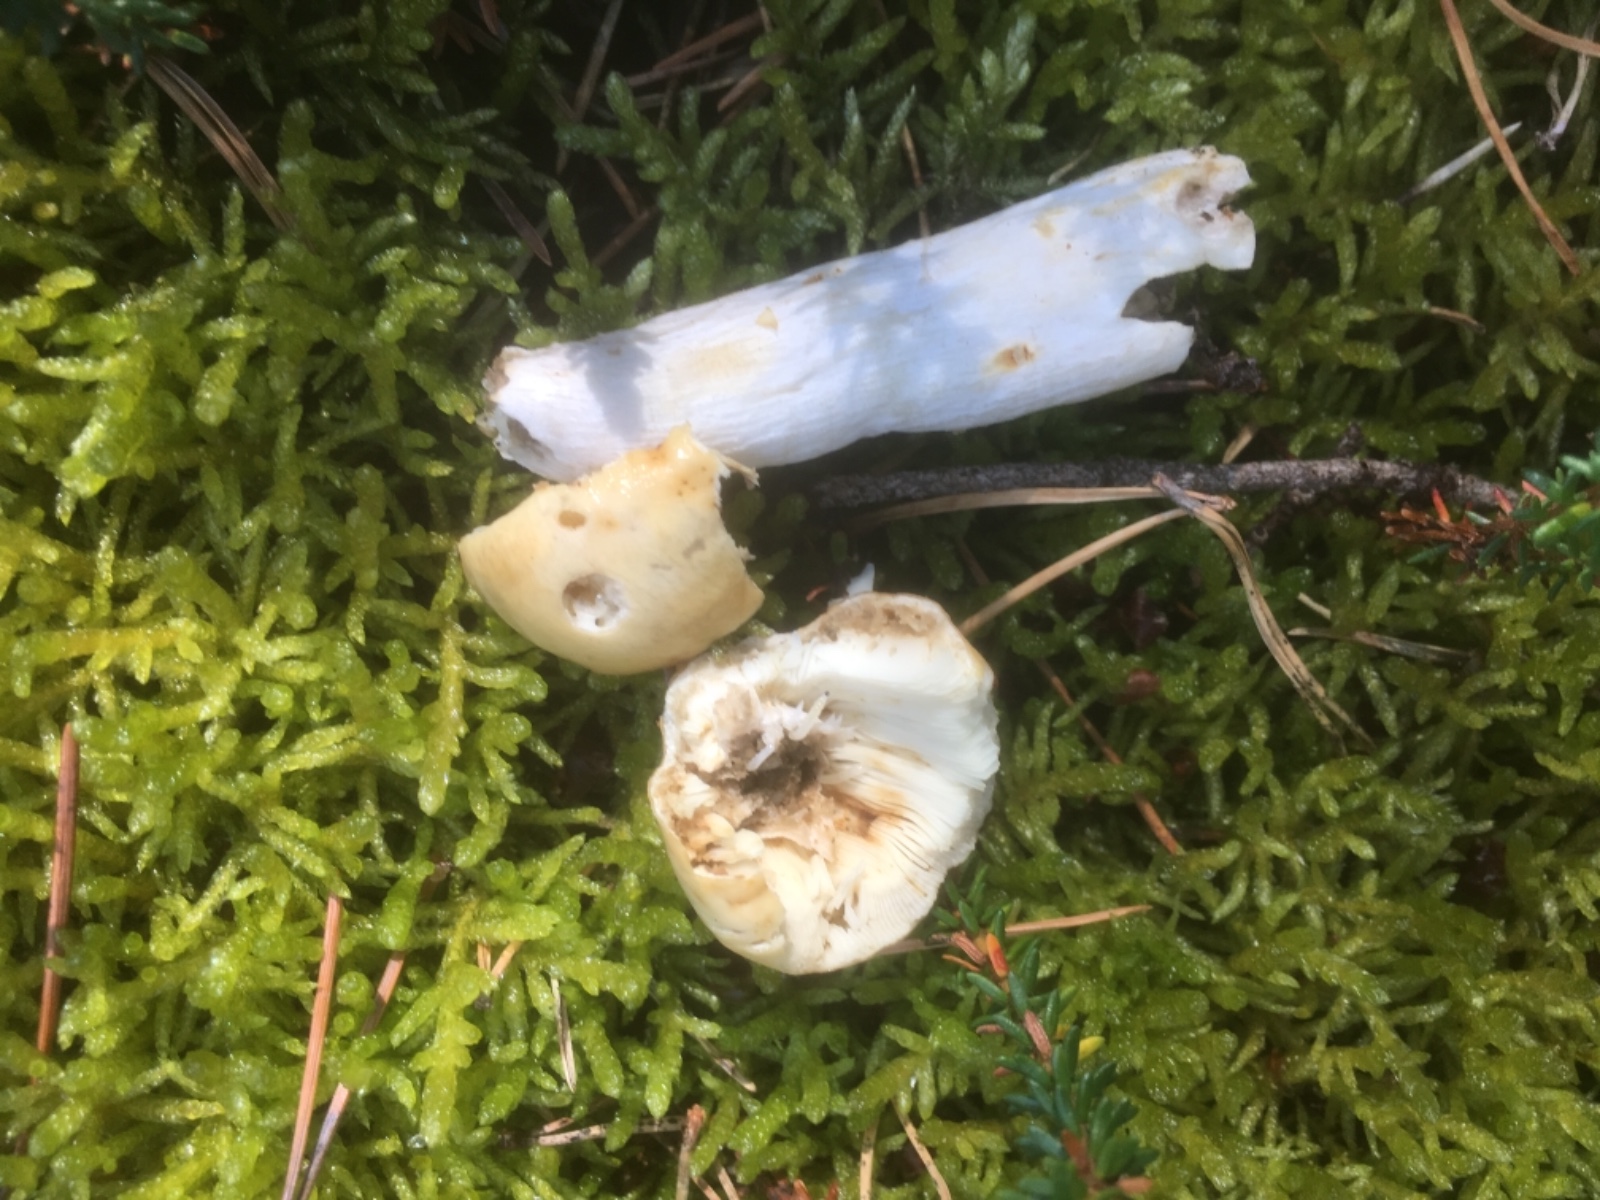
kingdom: Fungi
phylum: Basidiomycota
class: Agaricomycetes
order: Russulales
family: Russulaceae
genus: Russula
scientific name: Russula
